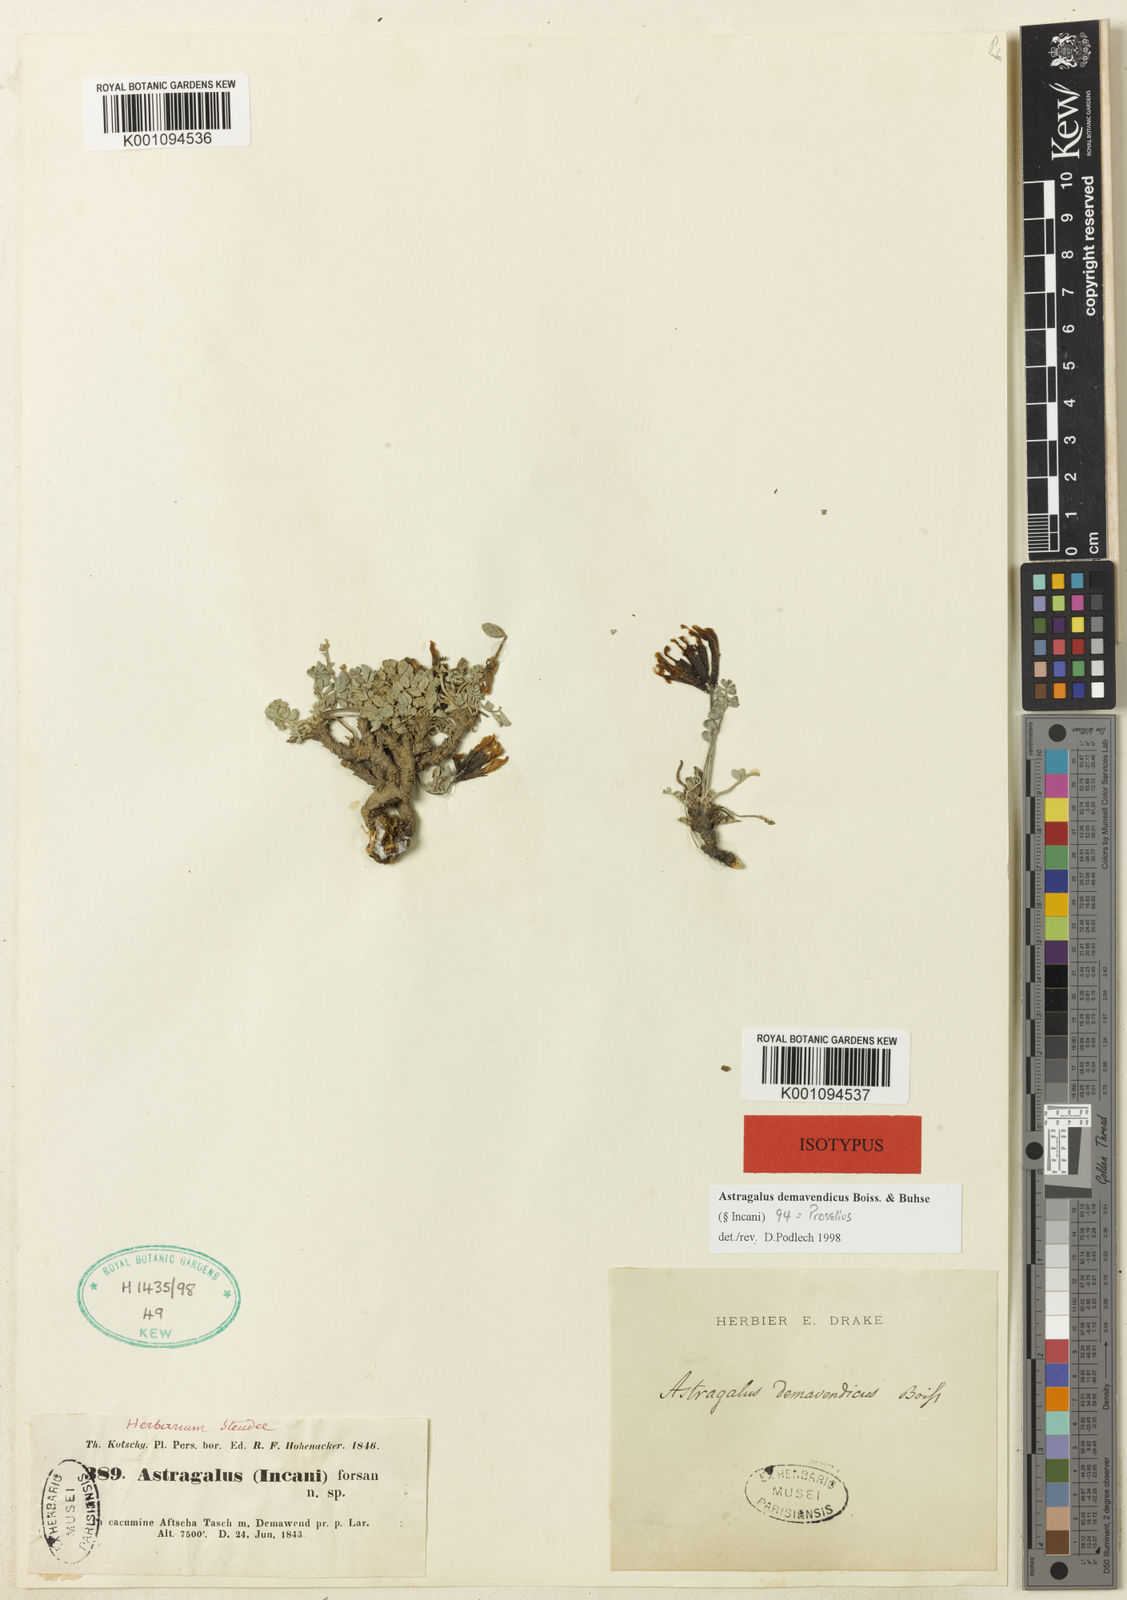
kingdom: Plantae
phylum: Tracheophyta
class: Magnoliopsida
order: Fabales
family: Fabaceae
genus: Astragalus
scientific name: Astragalus
